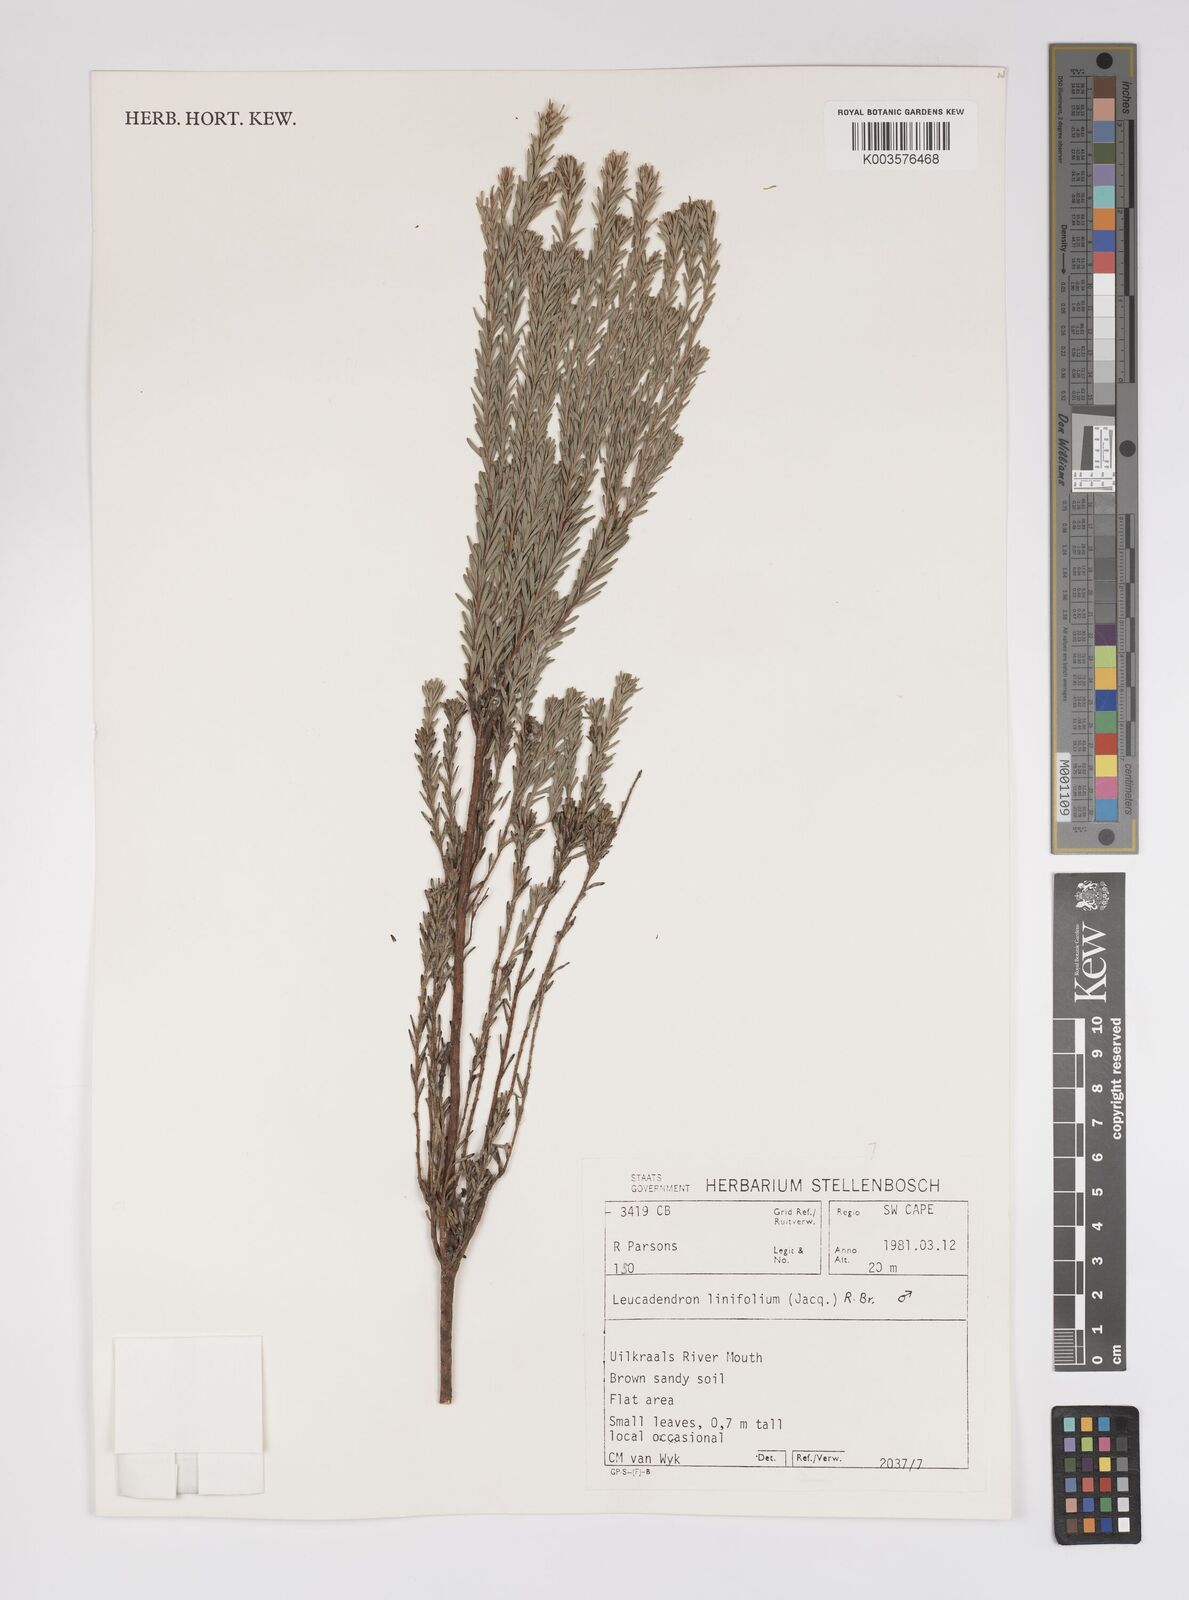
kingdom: Plantae
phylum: Tracheophyta
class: Magnoliopsida
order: Proteales
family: Proteaceae
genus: Leucadendron
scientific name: Leucadendron linifolium
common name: Line-leaf conebush
